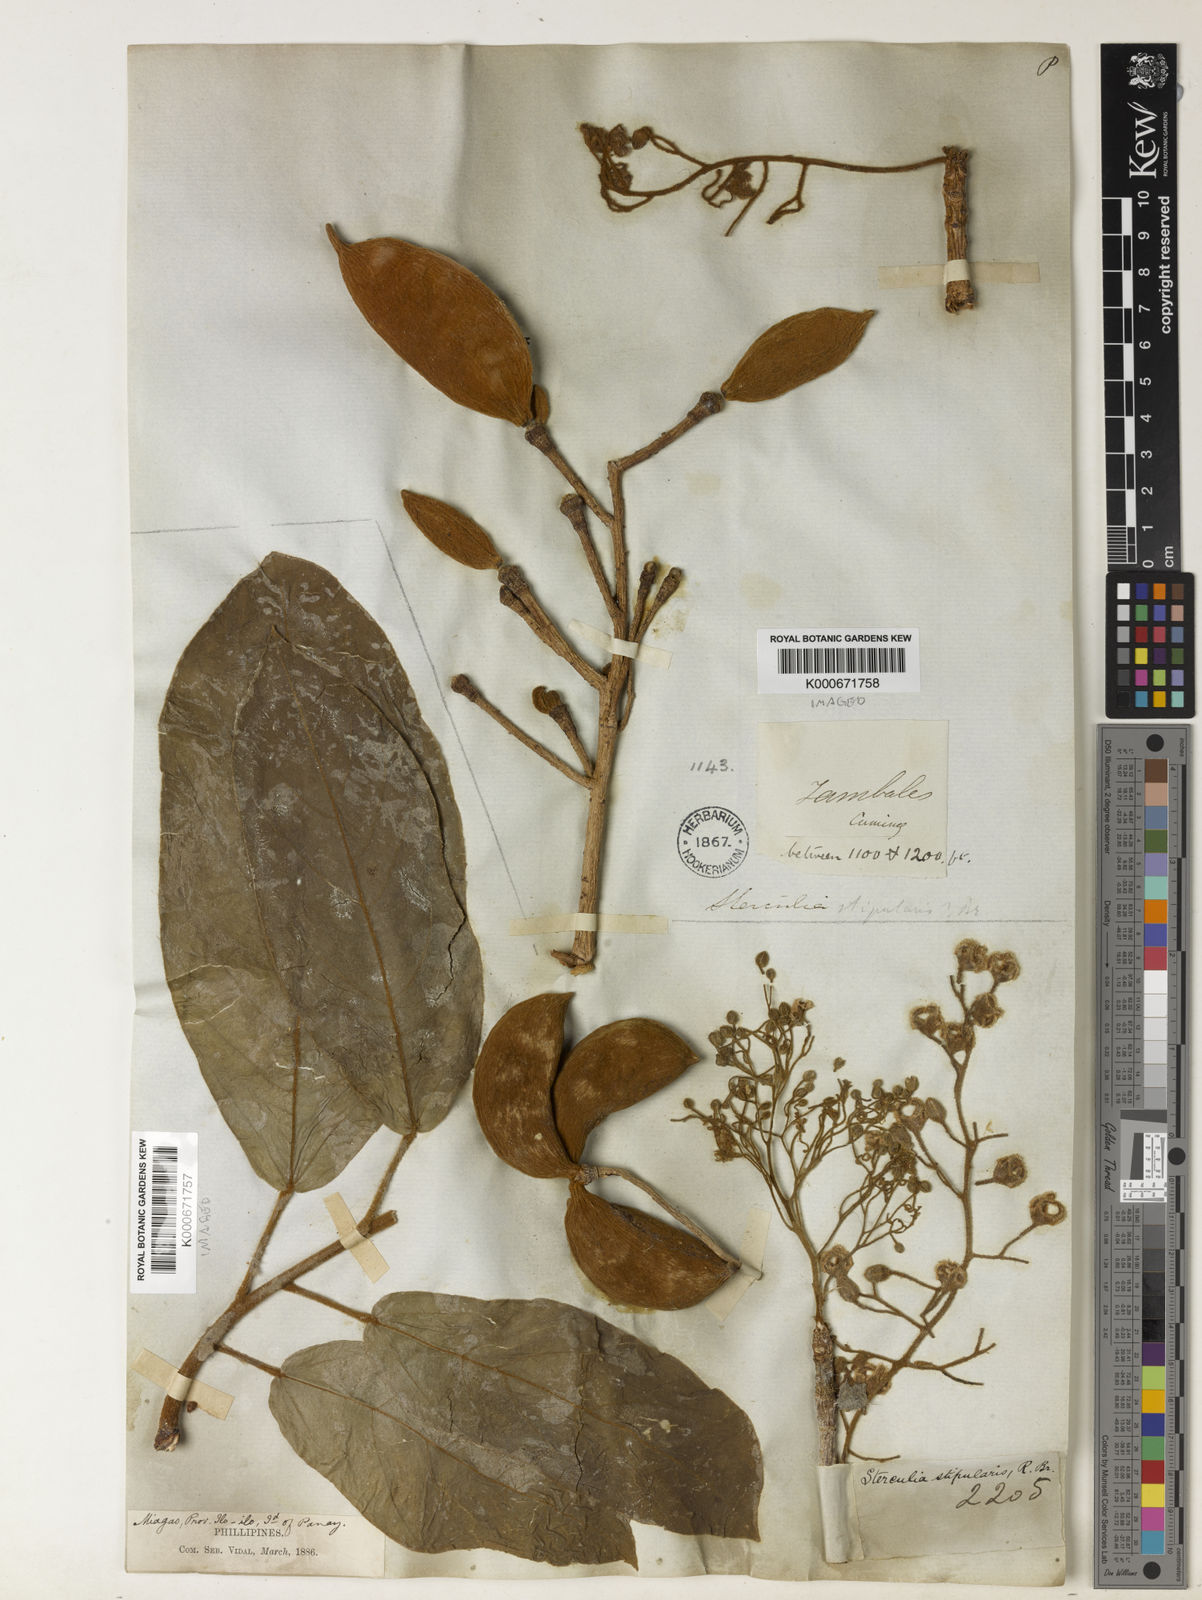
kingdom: Plantae
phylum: Tracheophyta
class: Magnoliopsida
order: Malvales
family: Malvaceae
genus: Sterculia
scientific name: Sterculia rubiginosa
